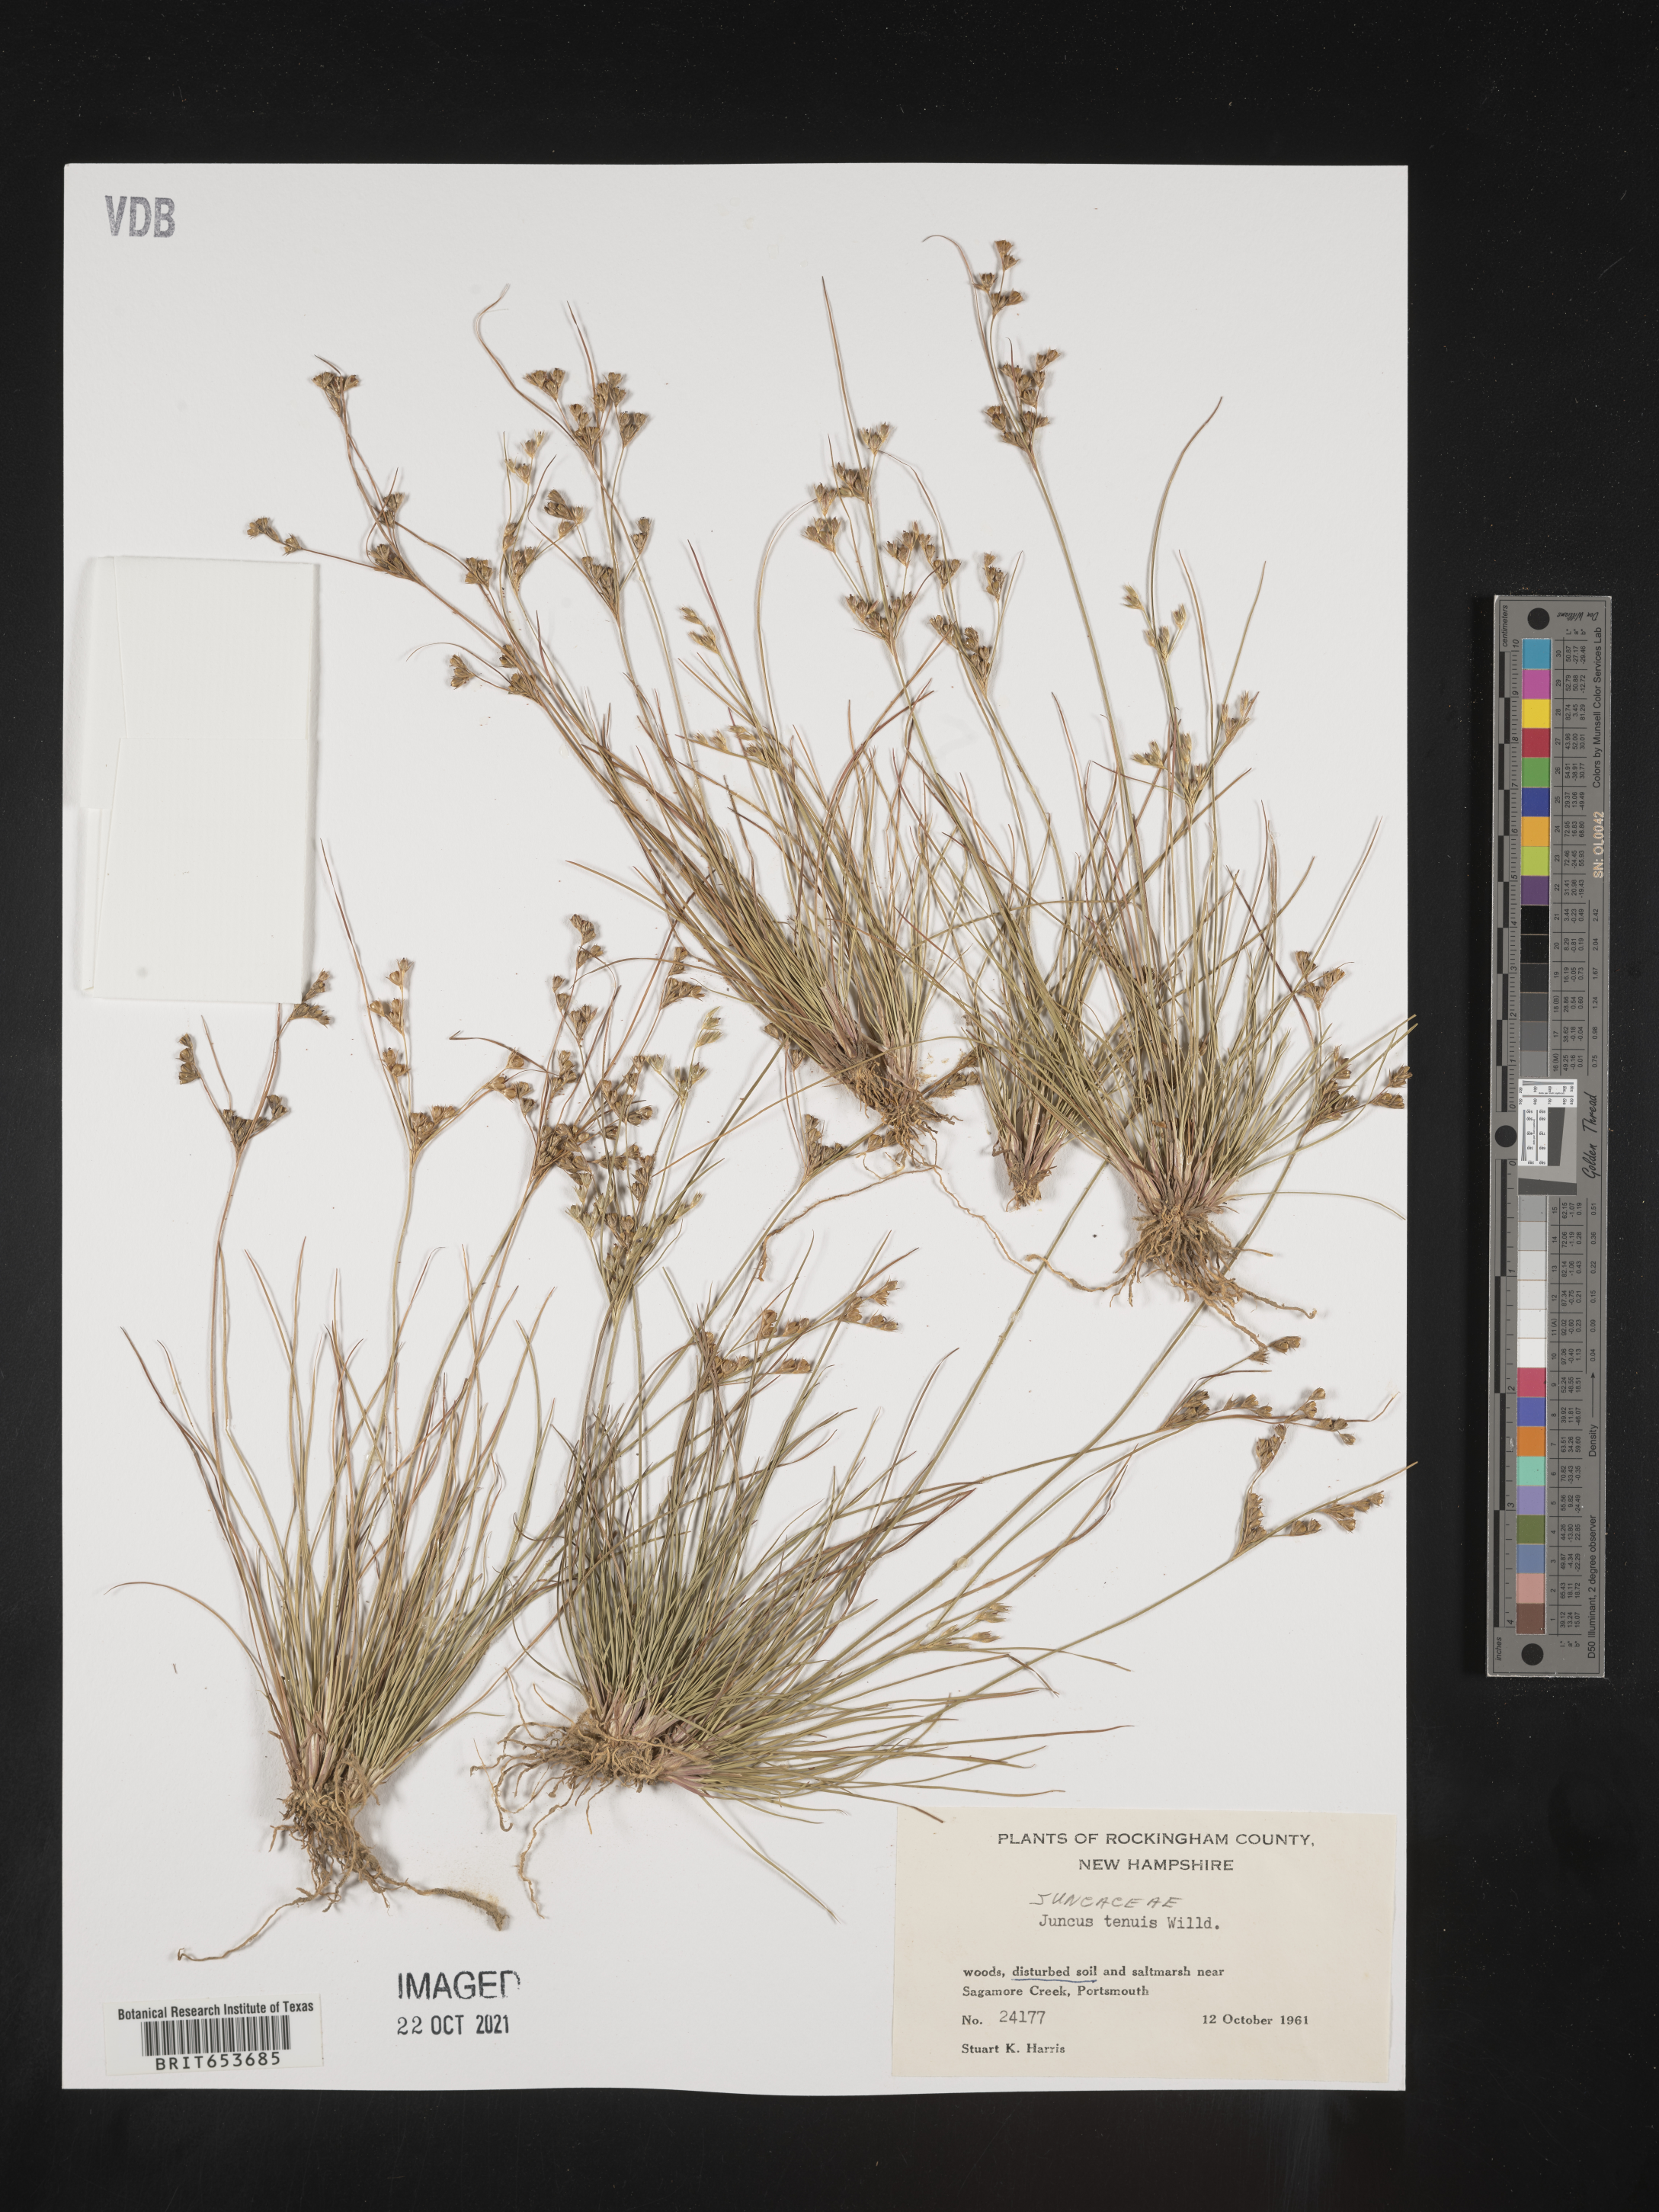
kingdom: Plantae
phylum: Tracheophyta
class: Liliopsida
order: Poales
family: Juncaceae
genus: Juncus
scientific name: Juncus tenuis
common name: Slender rush
